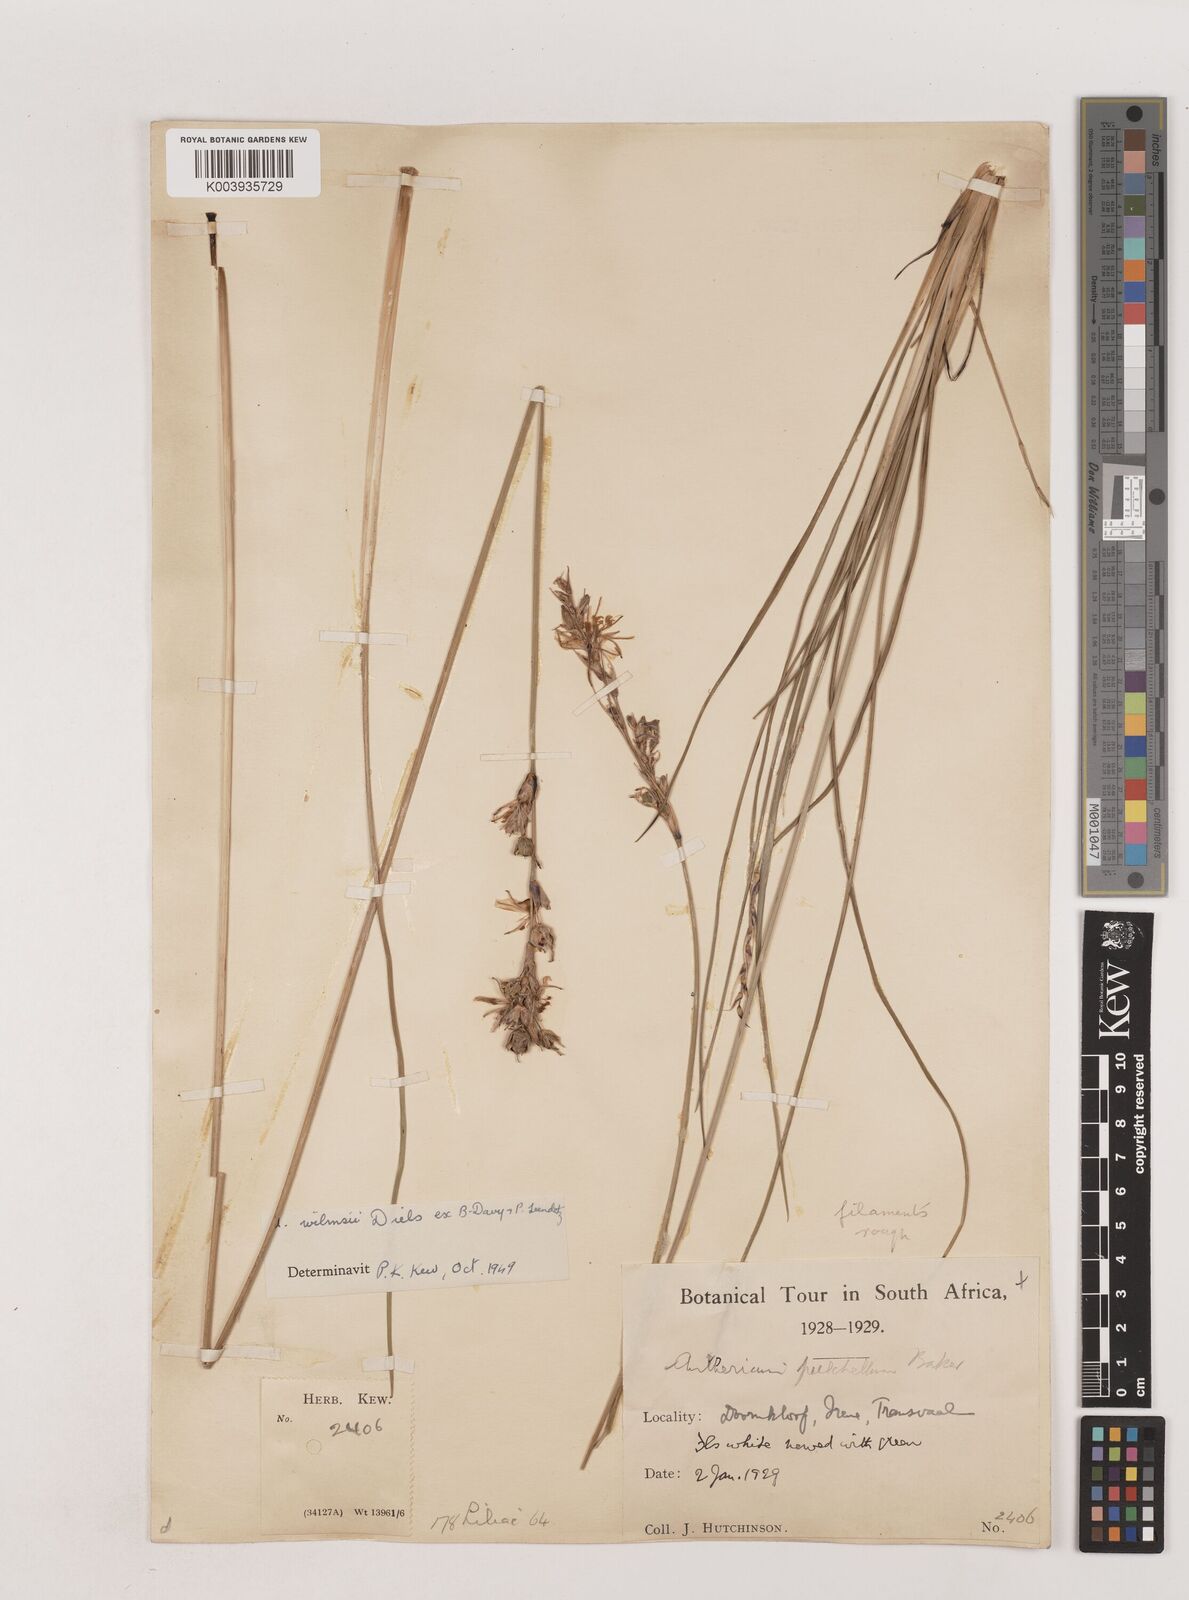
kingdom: Plantae
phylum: Tracheophyta
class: Liliopsida
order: Asparagales
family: Asparagaceae
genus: Chlorophytum
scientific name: Chlorophytum fasciculatum
